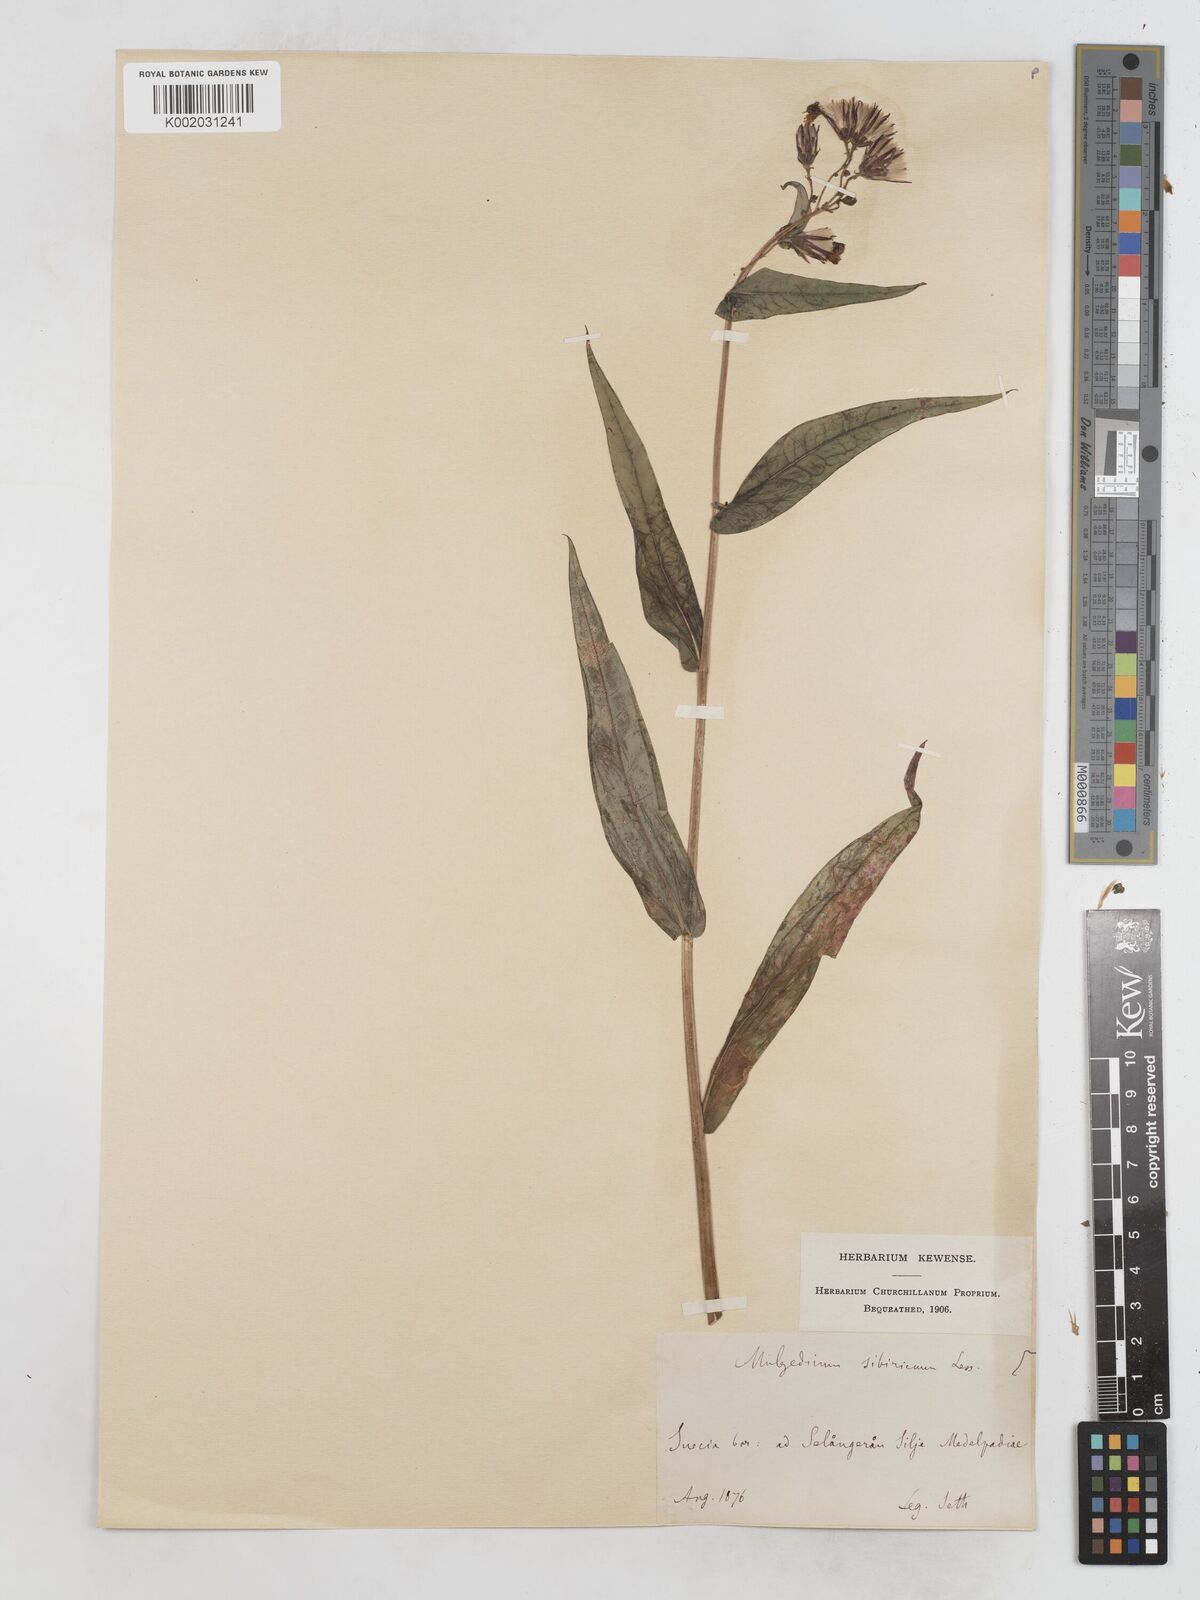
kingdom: Plantae
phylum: Tracheophyta
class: Magnoliopsida
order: Asterales
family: Asteraceae
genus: Lactuca
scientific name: Lactuca sibirica
